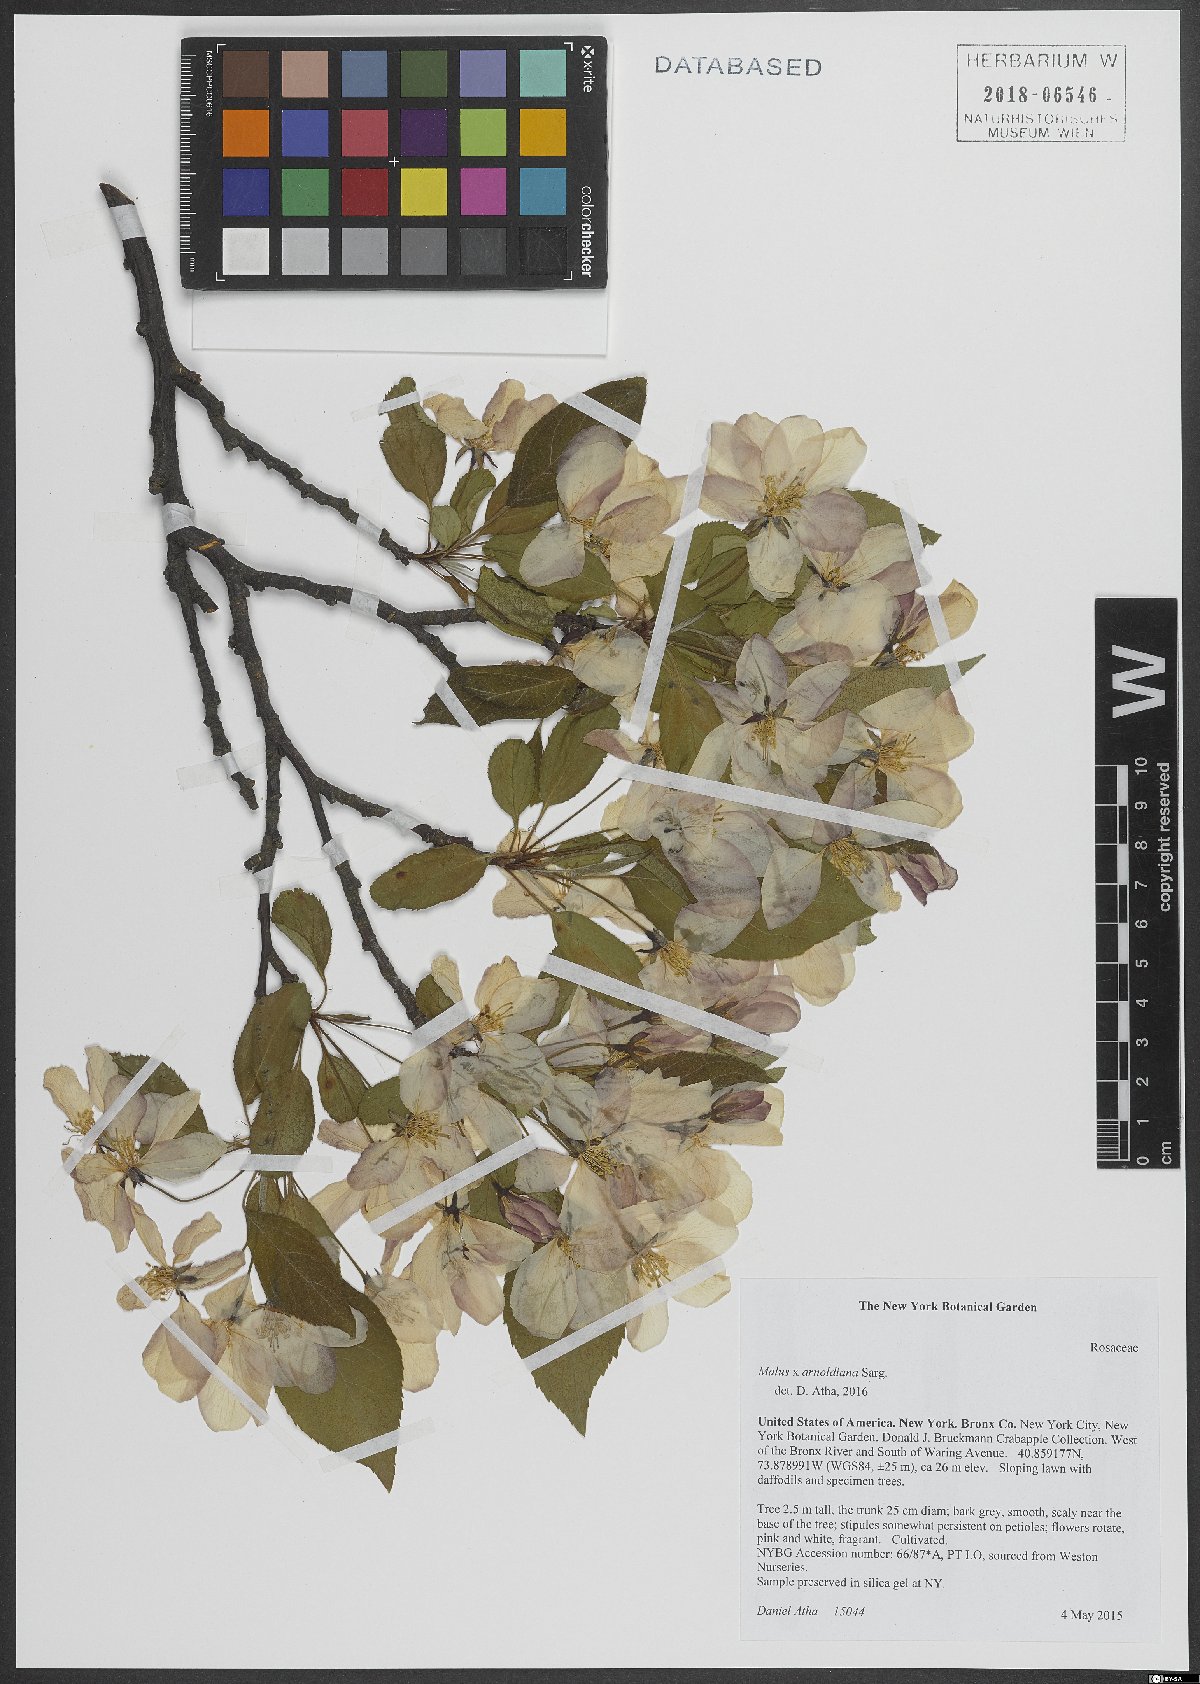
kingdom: Plantae
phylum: Tracheophyta
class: Magnoliopsida
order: Rosales
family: Rosaceae
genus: Malus
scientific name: Malus arnoldiana
